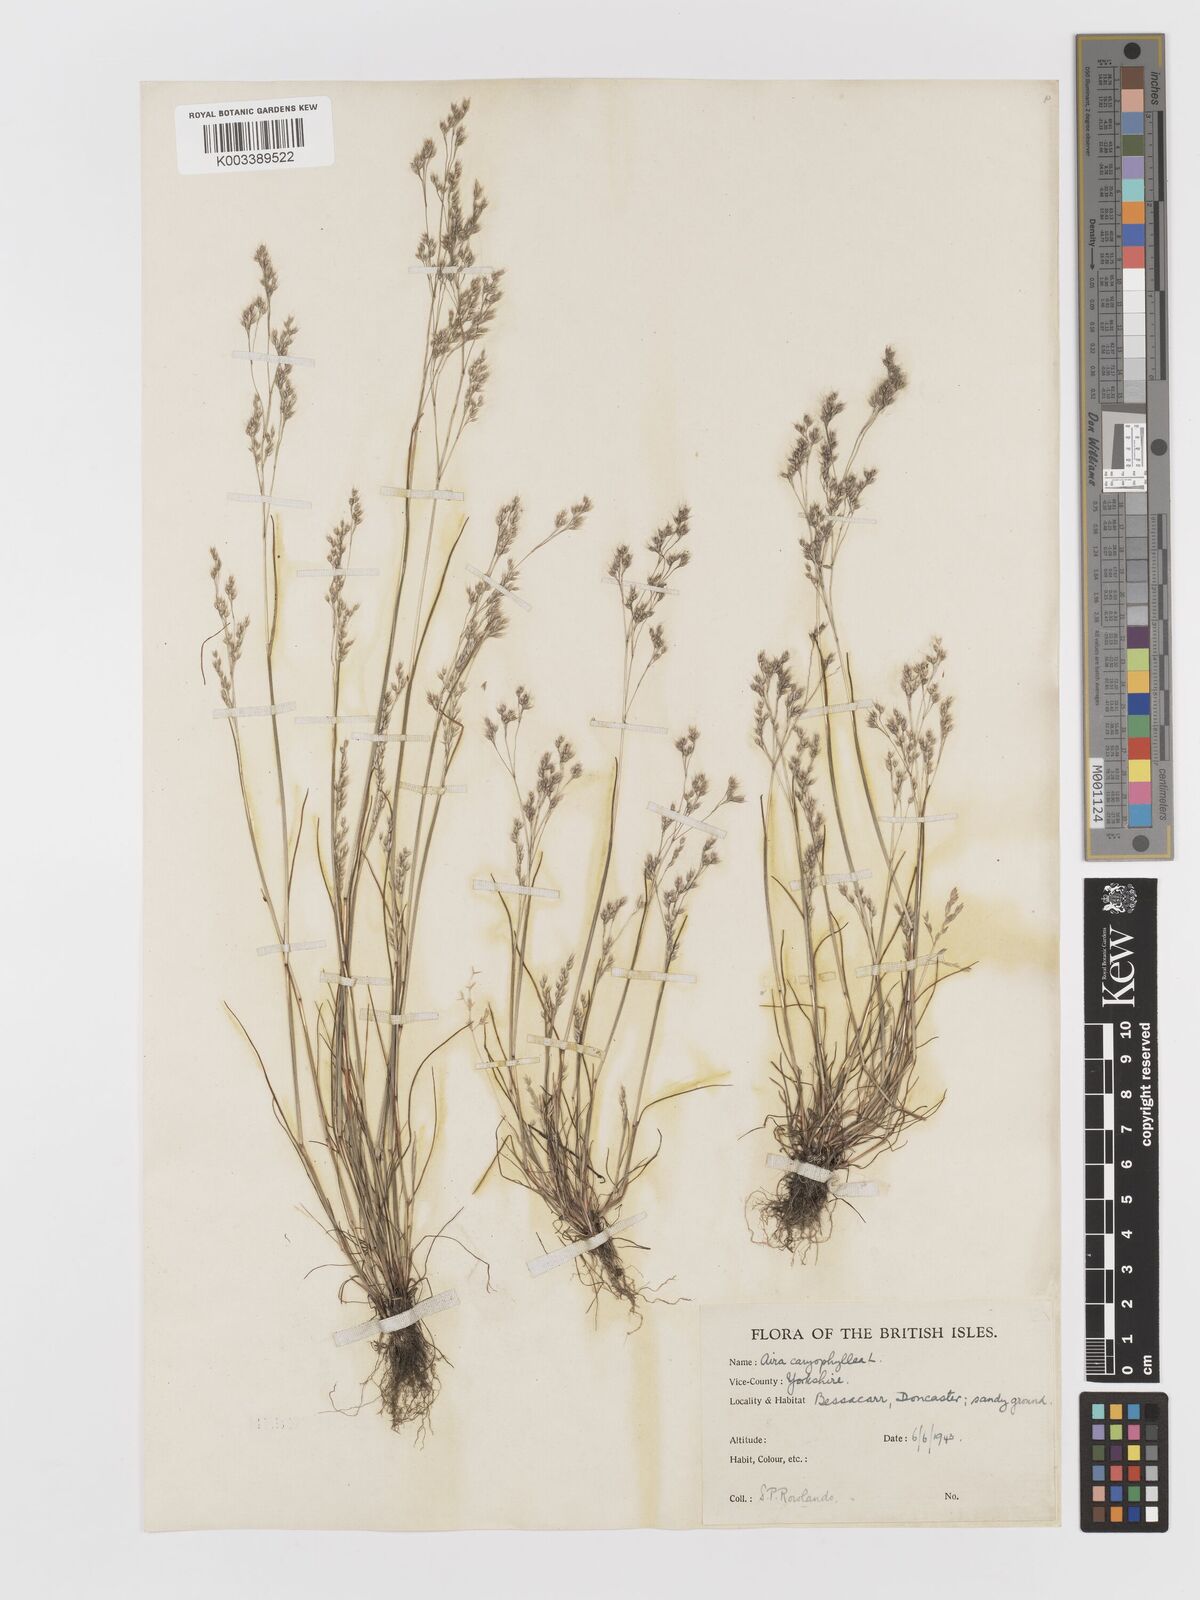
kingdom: Plantae
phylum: Tracheophyta
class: Liliopsida
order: Poales
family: Poaceae
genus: Aira
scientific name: Aira caryophyllea
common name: Silver hairgrass
